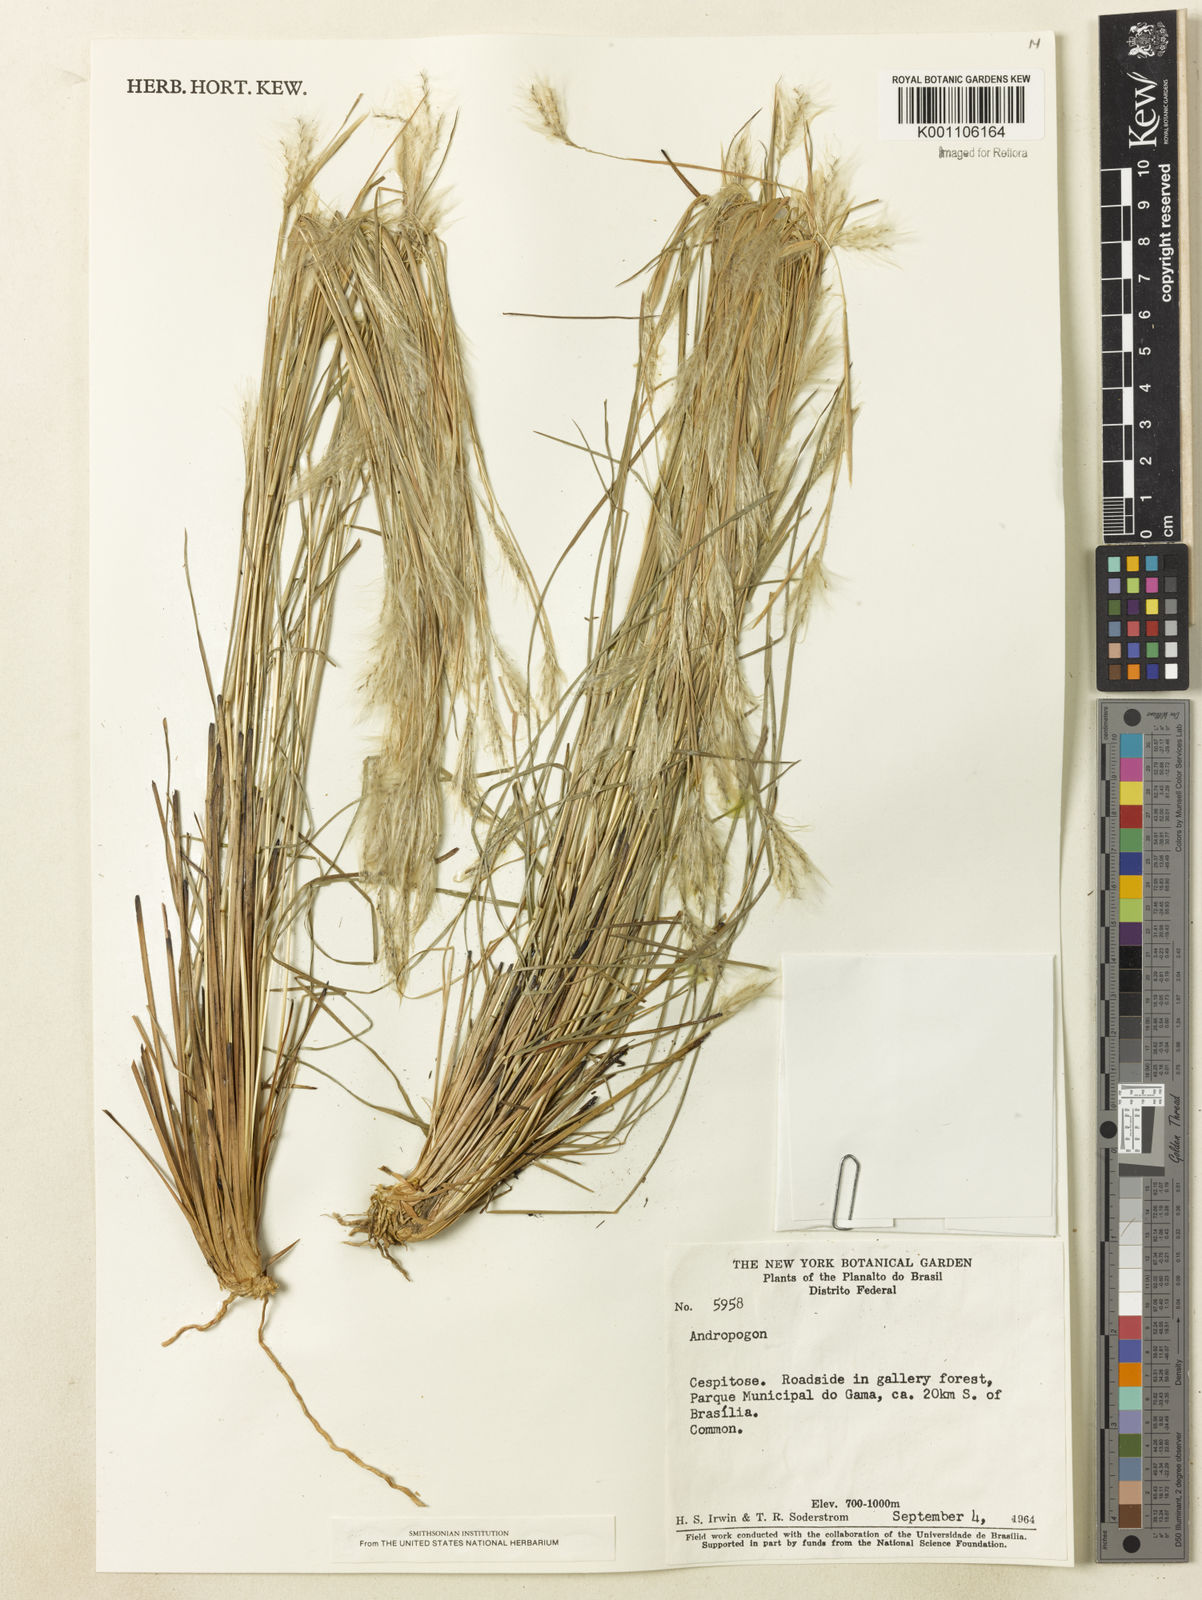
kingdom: Plantae
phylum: Tracheophyta
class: Liliopsida
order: Poales
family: Poaceae
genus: Andropogon
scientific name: Andropogon leucostachyus
